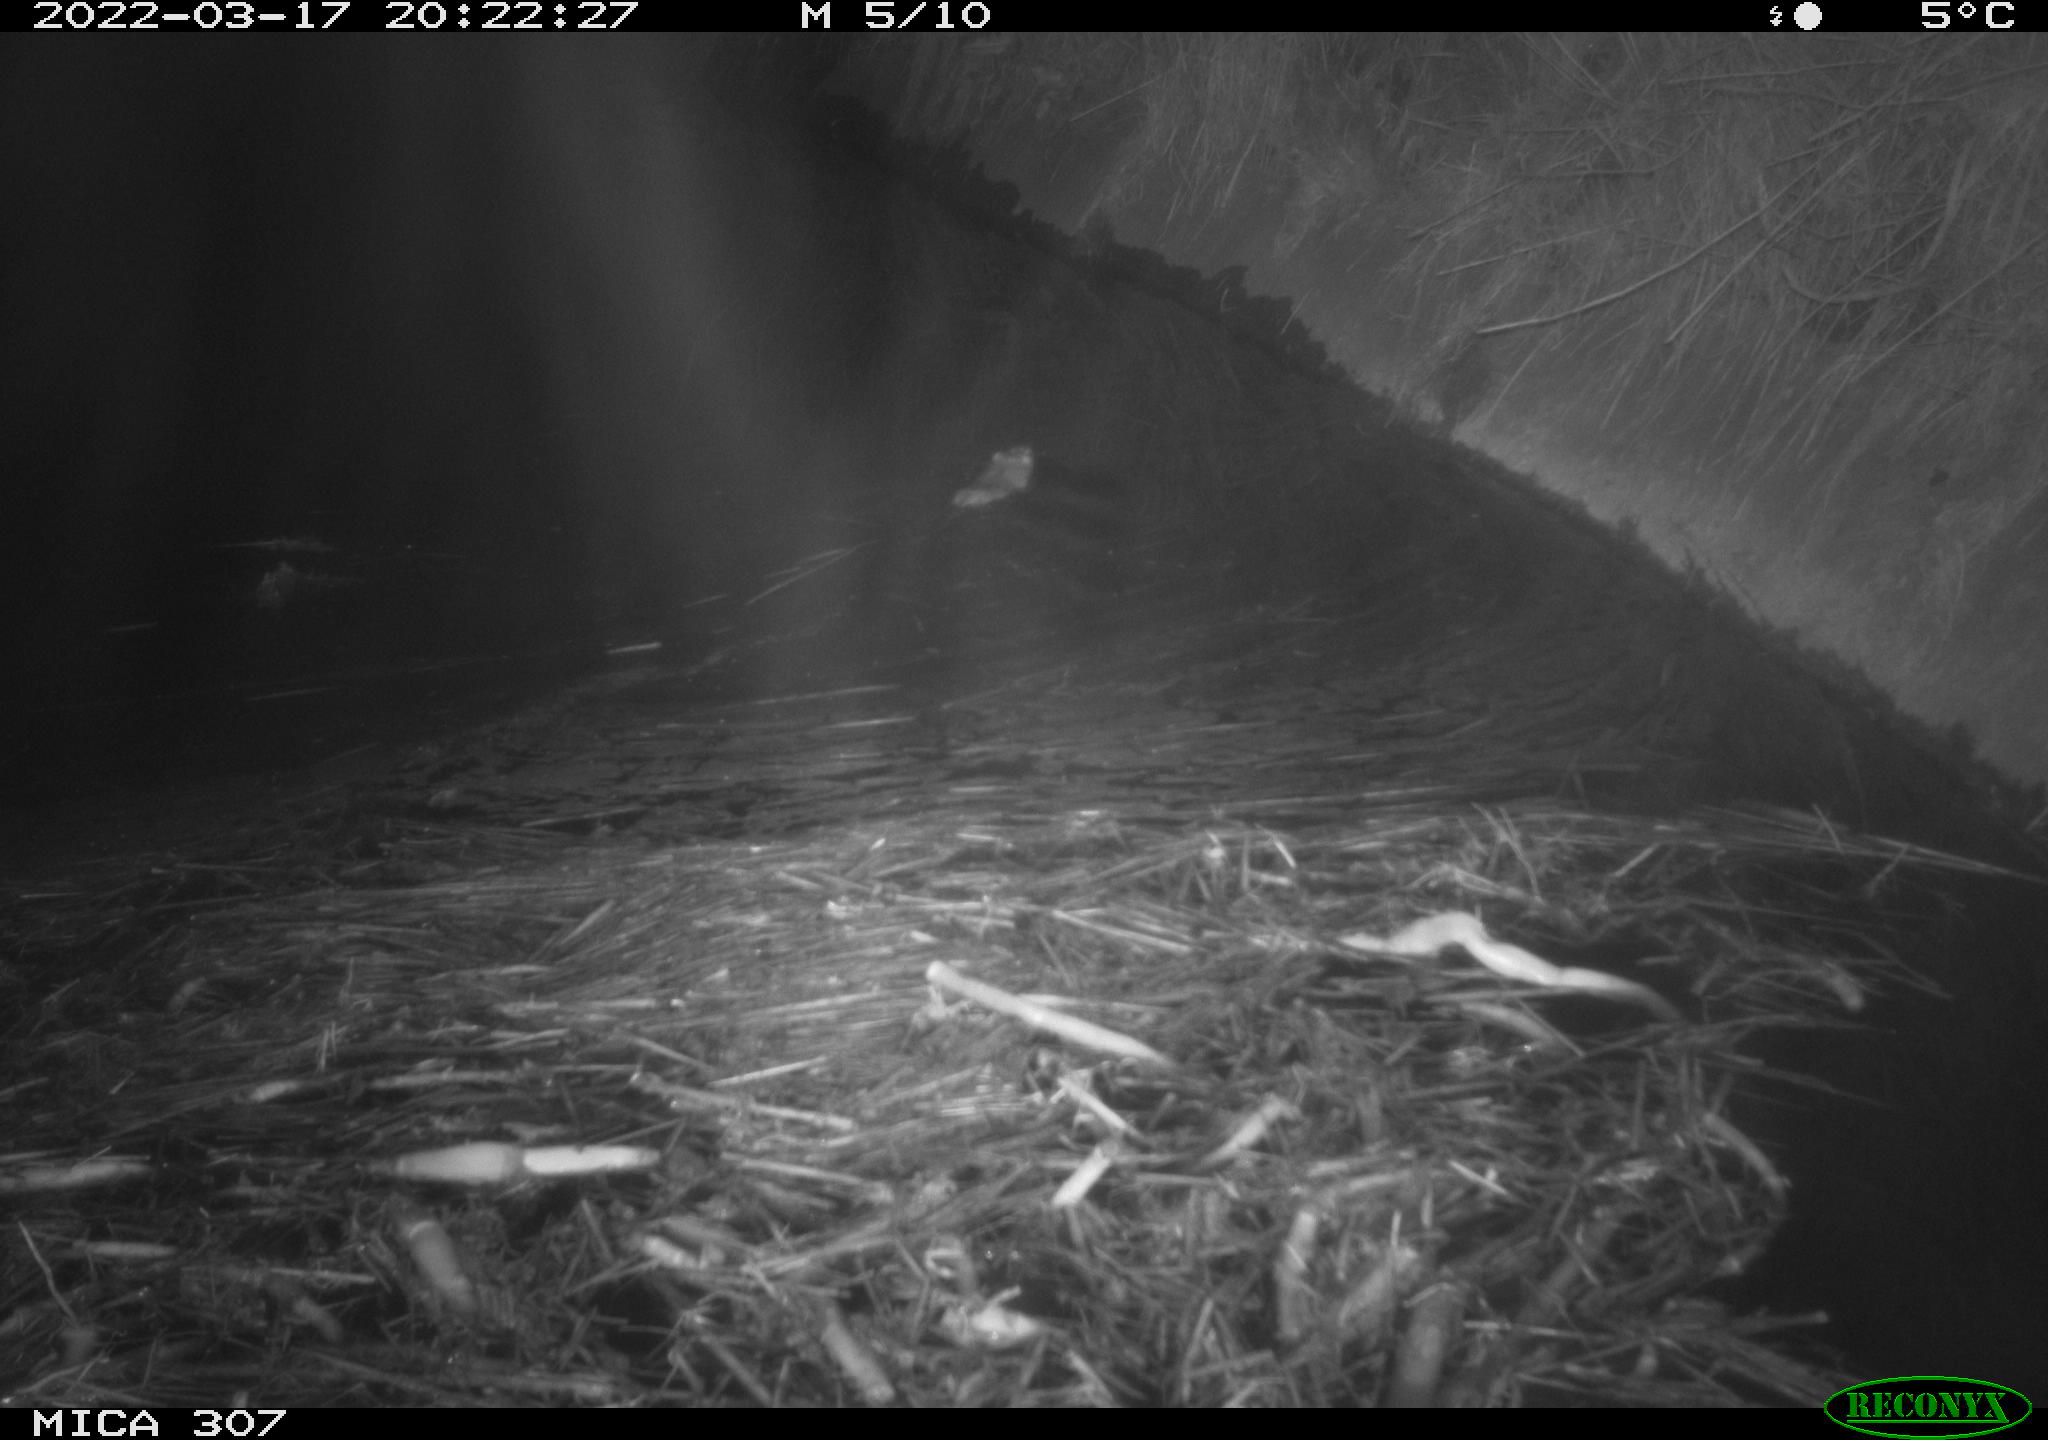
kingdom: Animalia
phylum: Chordata
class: Mammalia
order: Rodentia
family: Muridae
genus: Rattus
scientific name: Rattus norvegicus
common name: Brown rat
